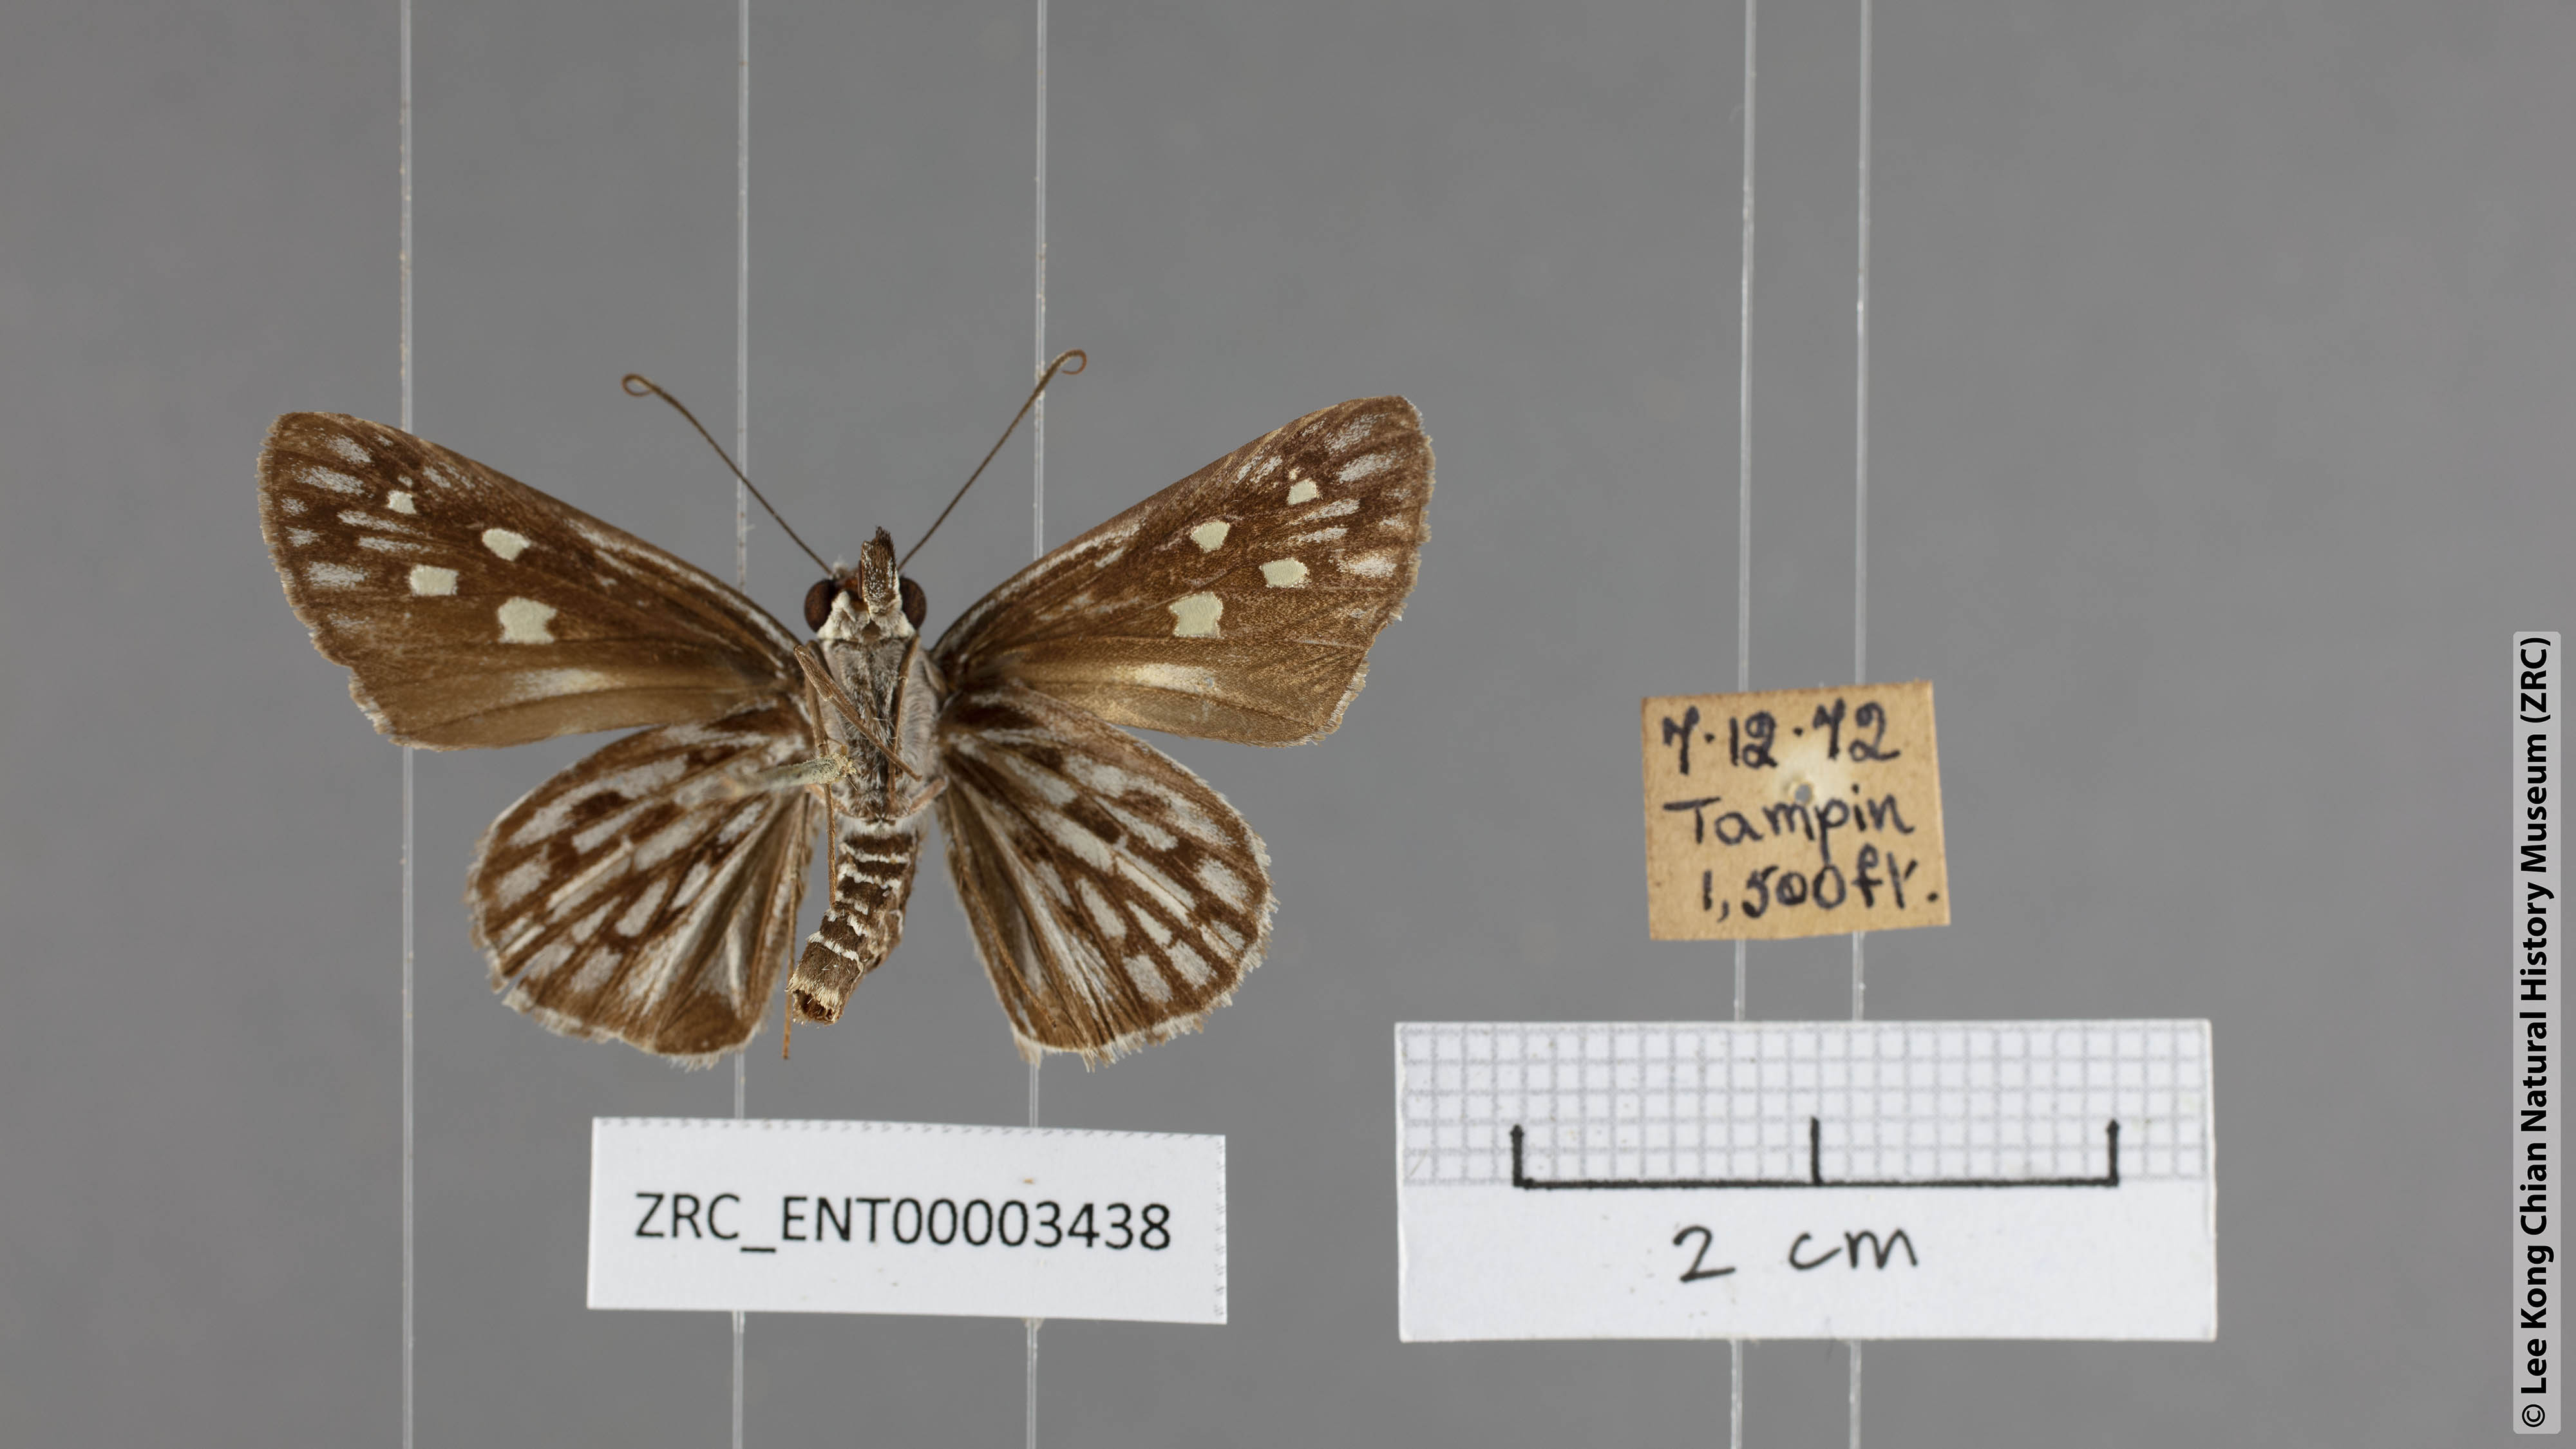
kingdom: Animalia
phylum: Arthropoda
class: Insecta
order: Lepidoptera
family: Hesperiidae
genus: Plastingia
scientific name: Plastingia naga
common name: Chequered lancer
